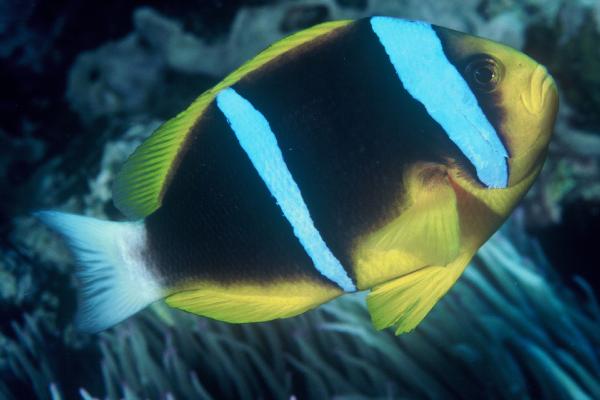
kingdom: Animalia
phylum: Chordata
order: Perciformes
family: Pomacentridae
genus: Amphiprion
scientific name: Amphiprion chrysopterus
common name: Orange-fin anemonefish
